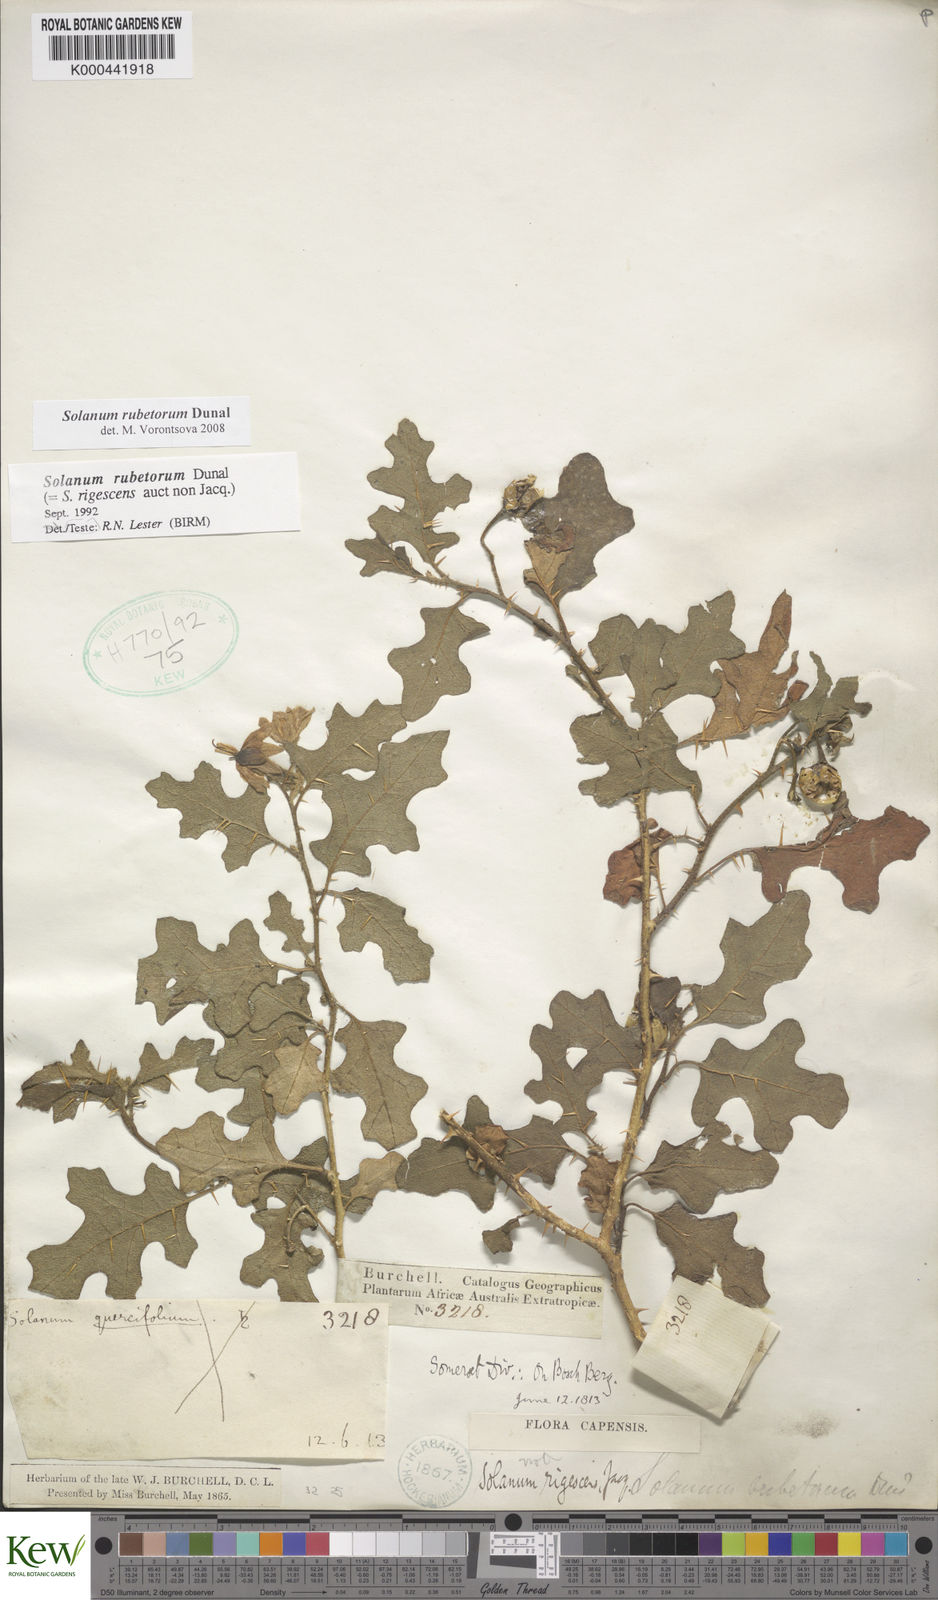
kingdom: Plantae
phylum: Tracheophyta
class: Magnoliopsida
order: Solanales
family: Solanaceae
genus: Solanum
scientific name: Solanum rubetorum
